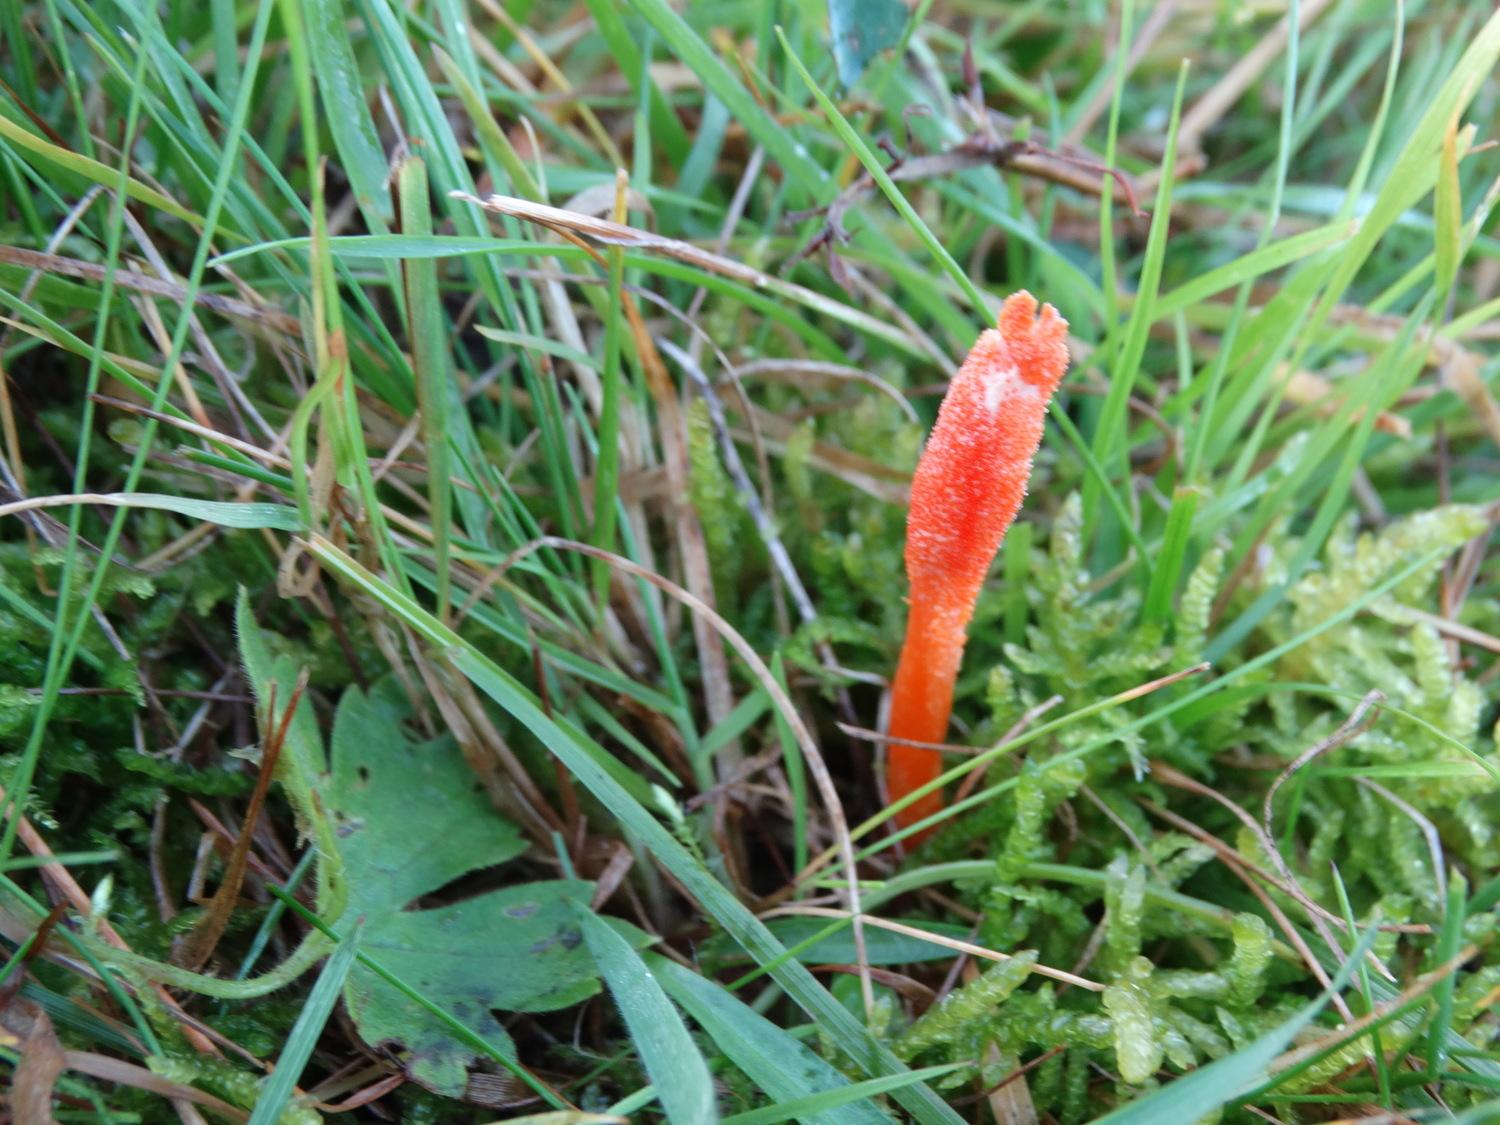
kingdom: Fungi
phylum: Ascomycota
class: Sordariomycetes
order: Hypocreales
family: Cordycipitaceae
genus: Cordyceps
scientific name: Cordyceps militaris
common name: puppe-snyltekølle
